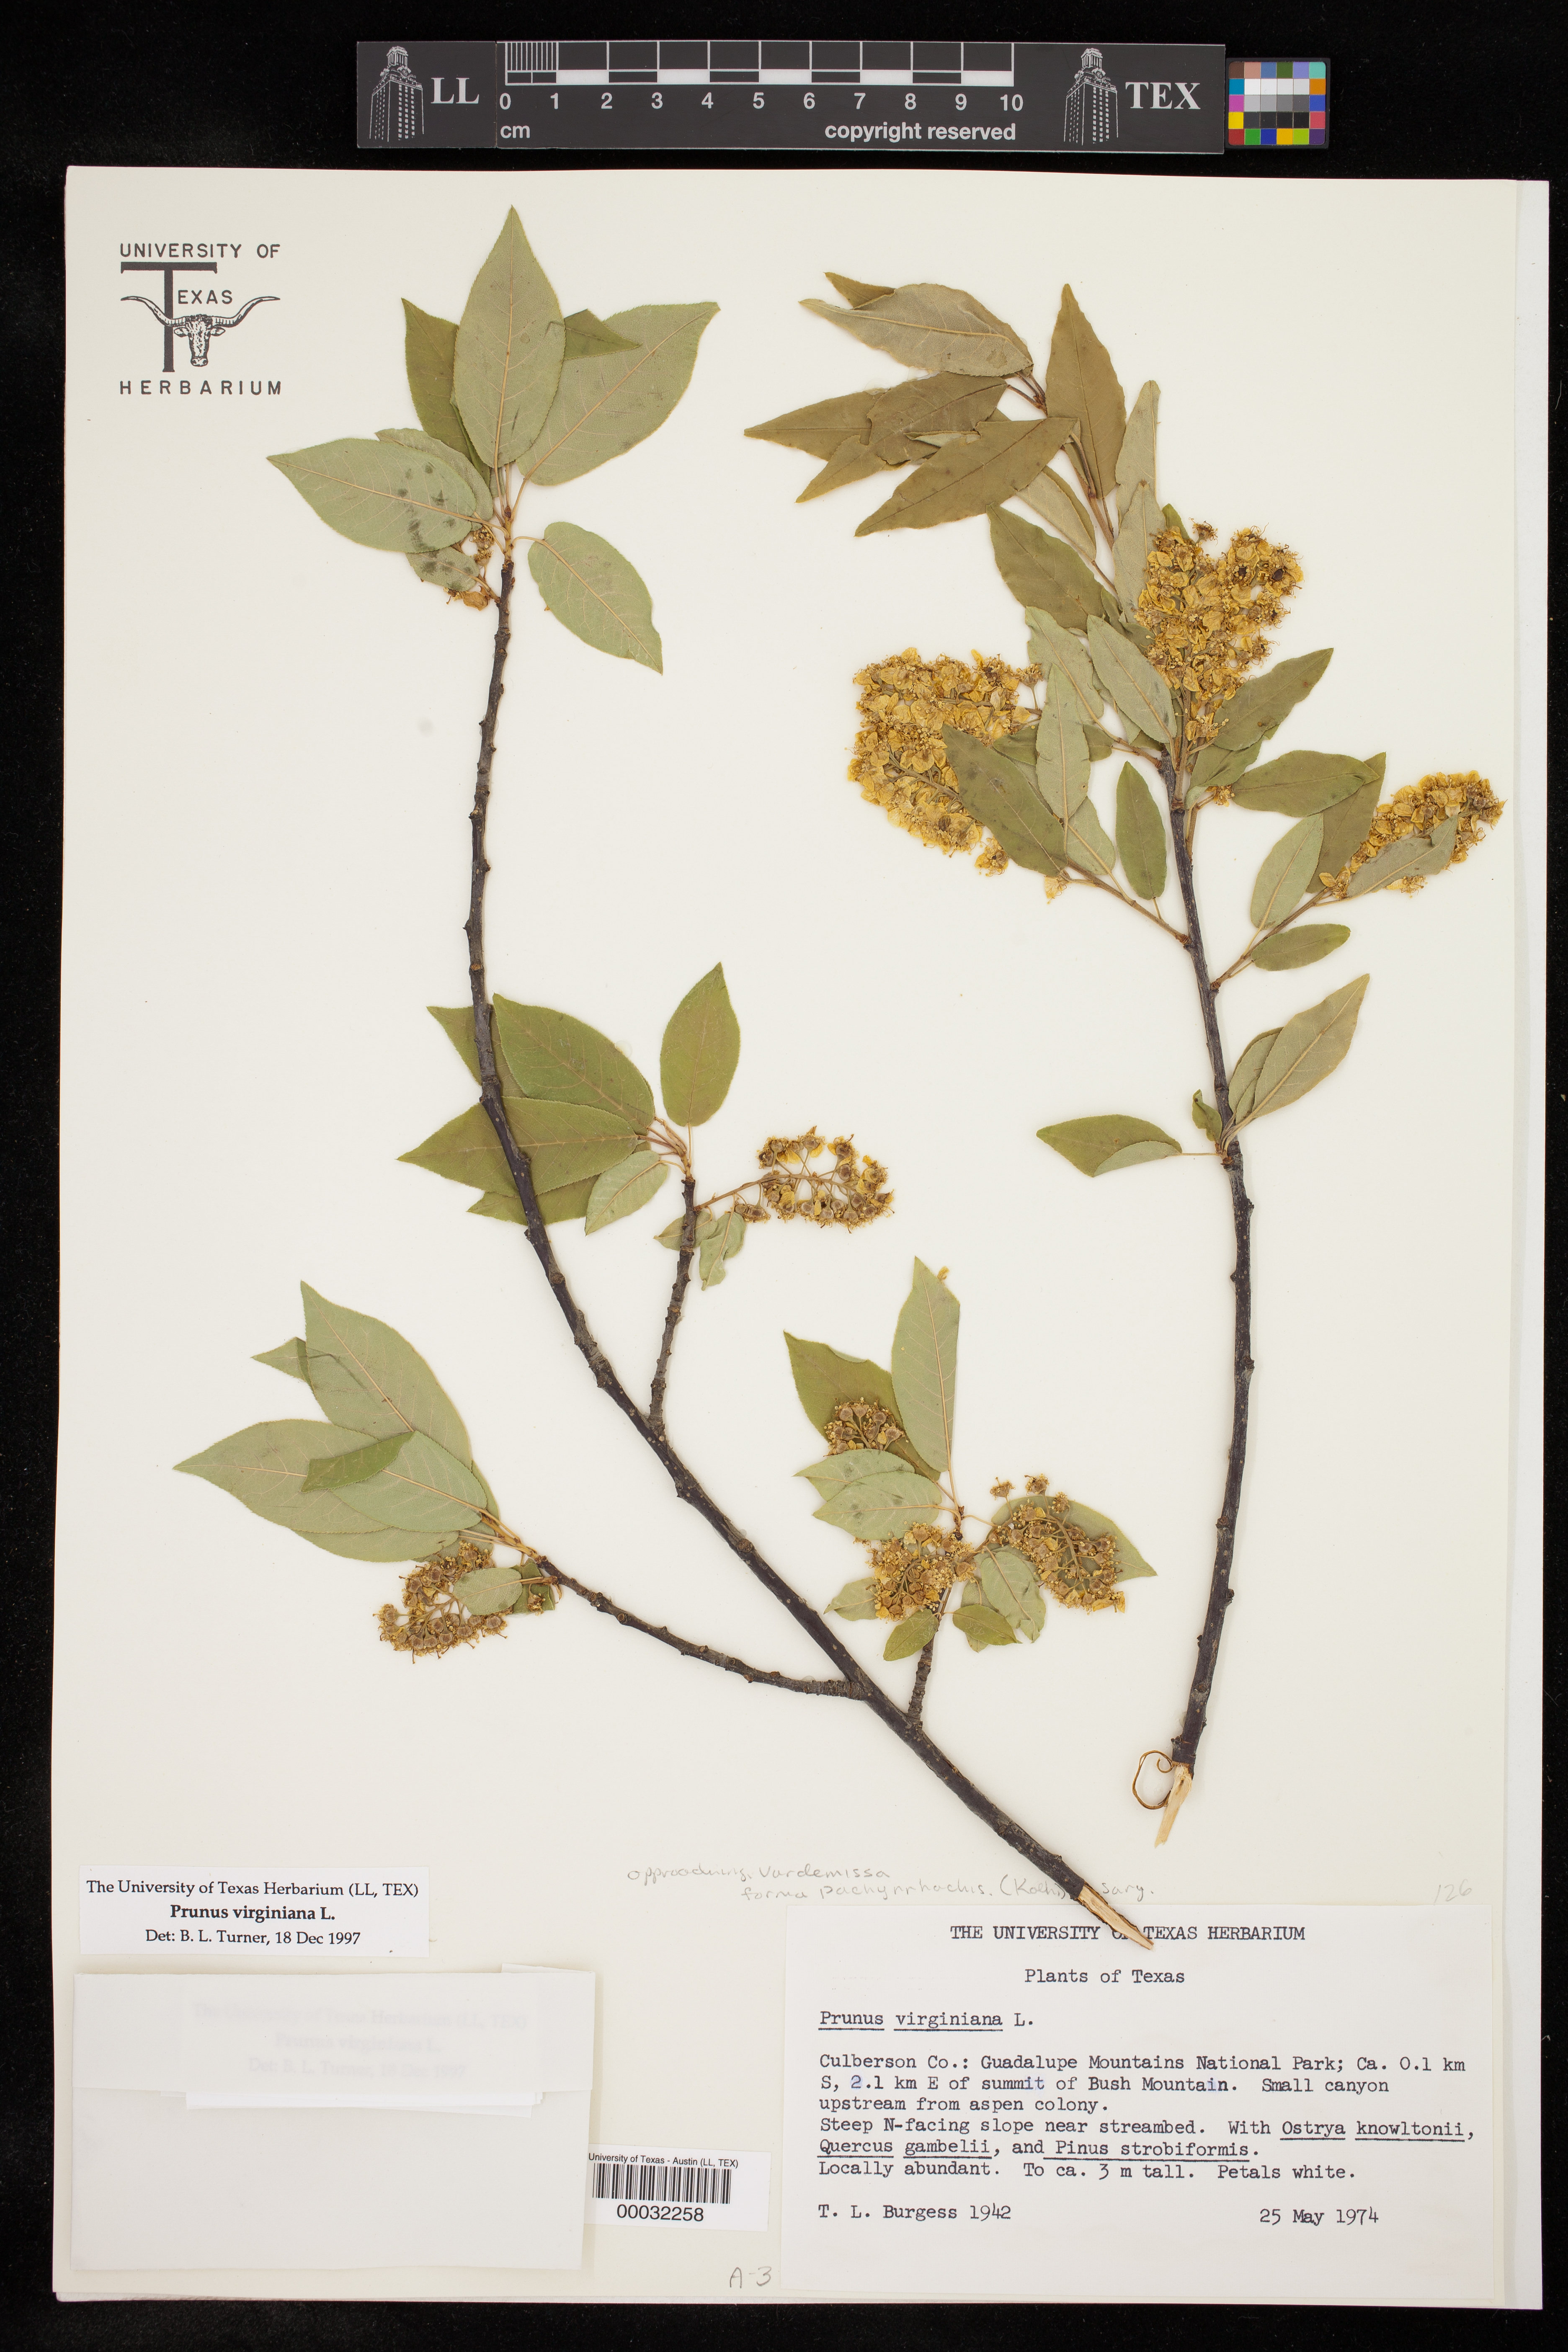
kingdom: Plantae
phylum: Tracheophyta
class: Magnoliopsida
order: Rosales
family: Rosaceae
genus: Prunus
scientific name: Prunus virginiana
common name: Chokecherry
